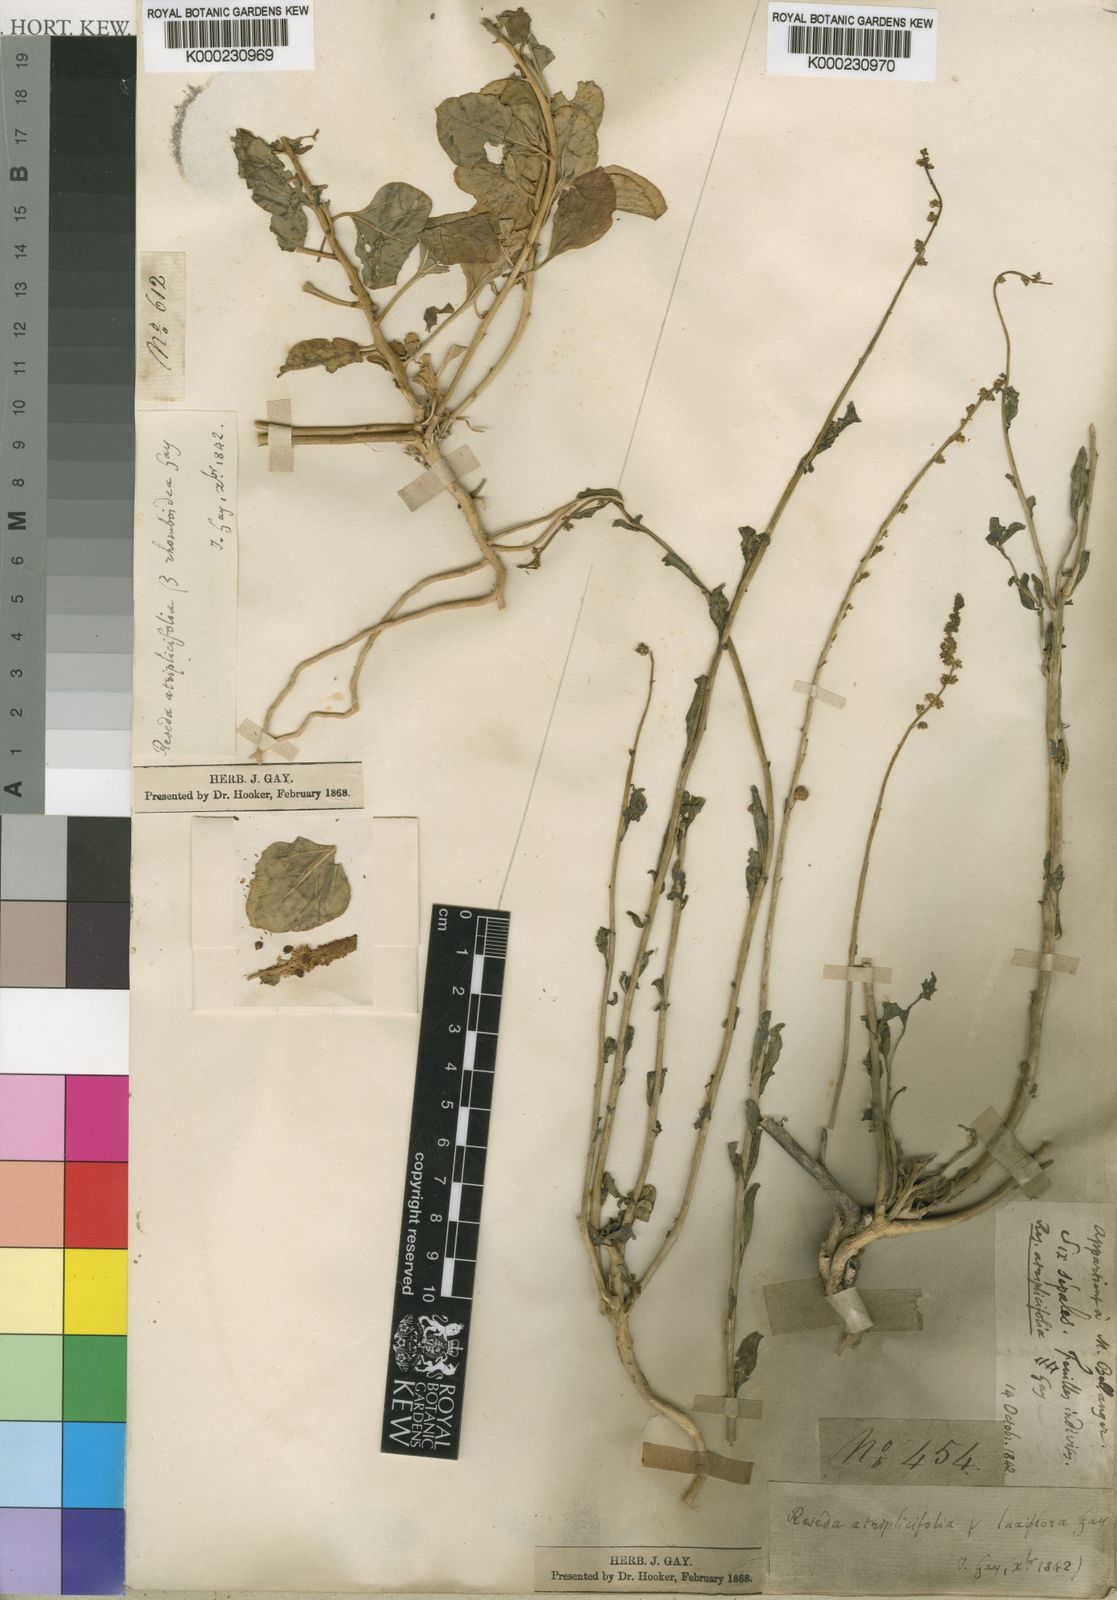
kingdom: Plantae
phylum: Tracheophyta
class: Magnoliopsida
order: Brassicales
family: Resedaceae
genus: Reseda
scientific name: Reseda alphonsii
